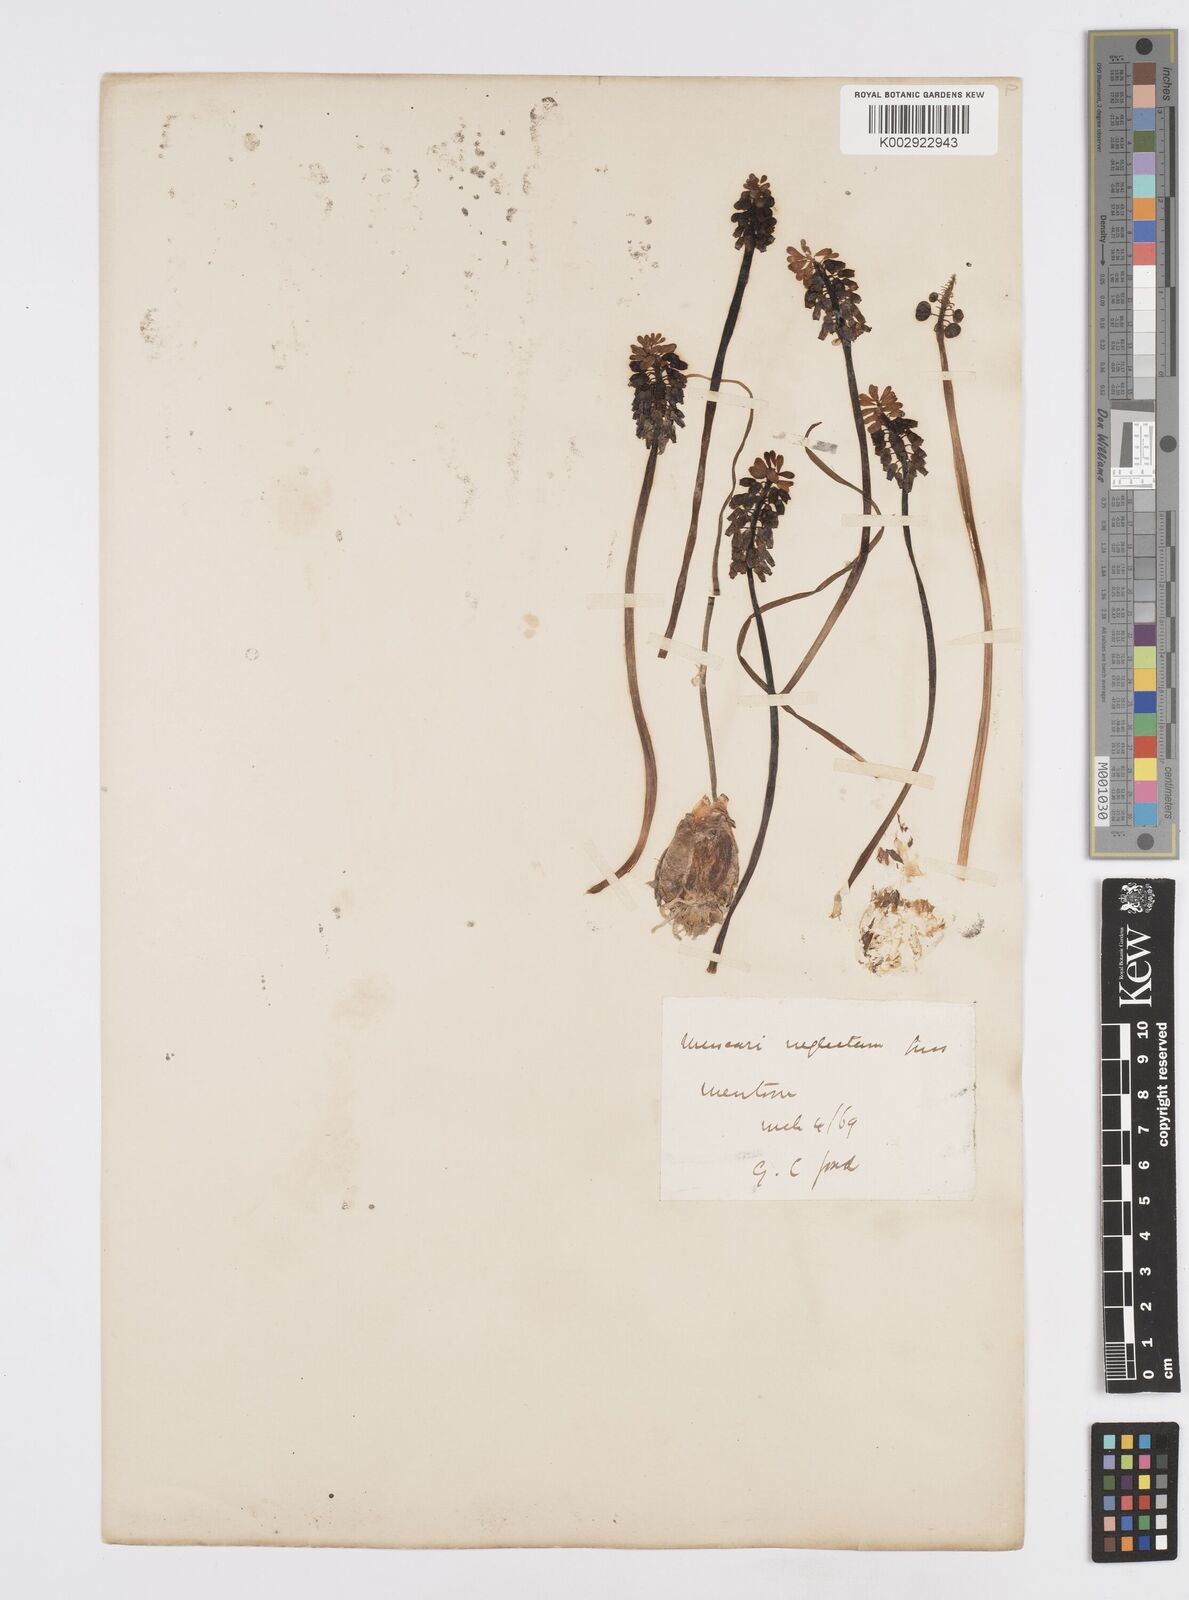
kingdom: Plantae
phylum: Tracheophyta
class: Liliopsida
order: Asparagales
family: Asparagaceae
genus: Muscari
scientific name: Muscari neglectum
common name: Grape-hyacinth
